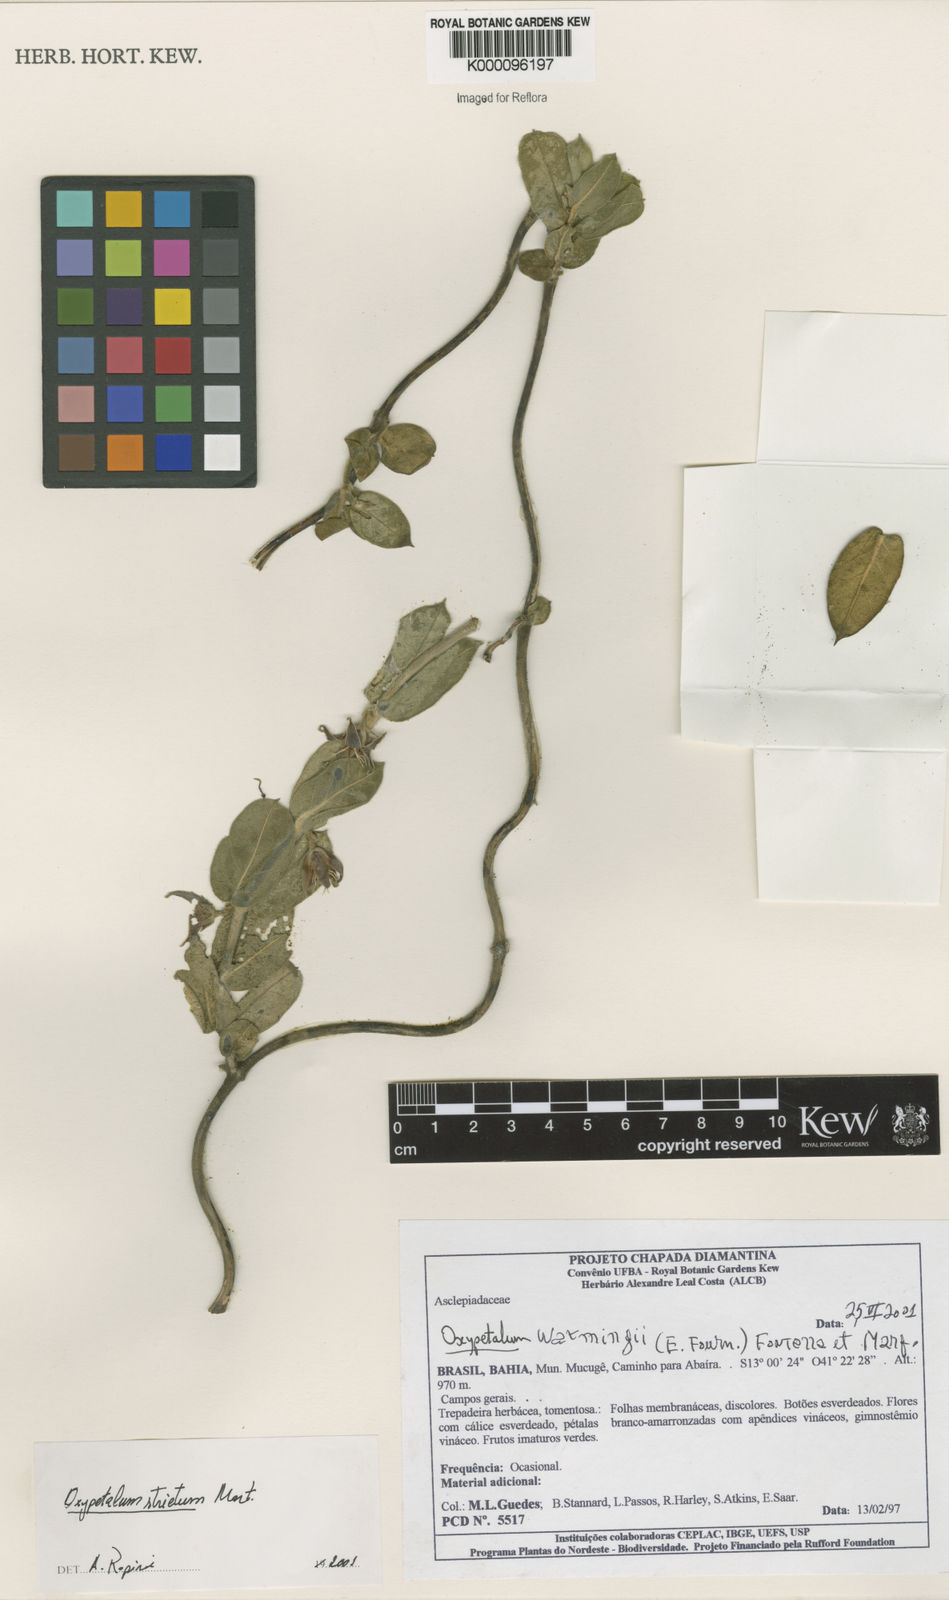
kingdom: Plantae
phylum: Tracheophyta
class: Magnoliopsida
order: Gentianales
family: Apocynaceae
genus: Oxypetalum
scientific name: Oxypetalum strictum
